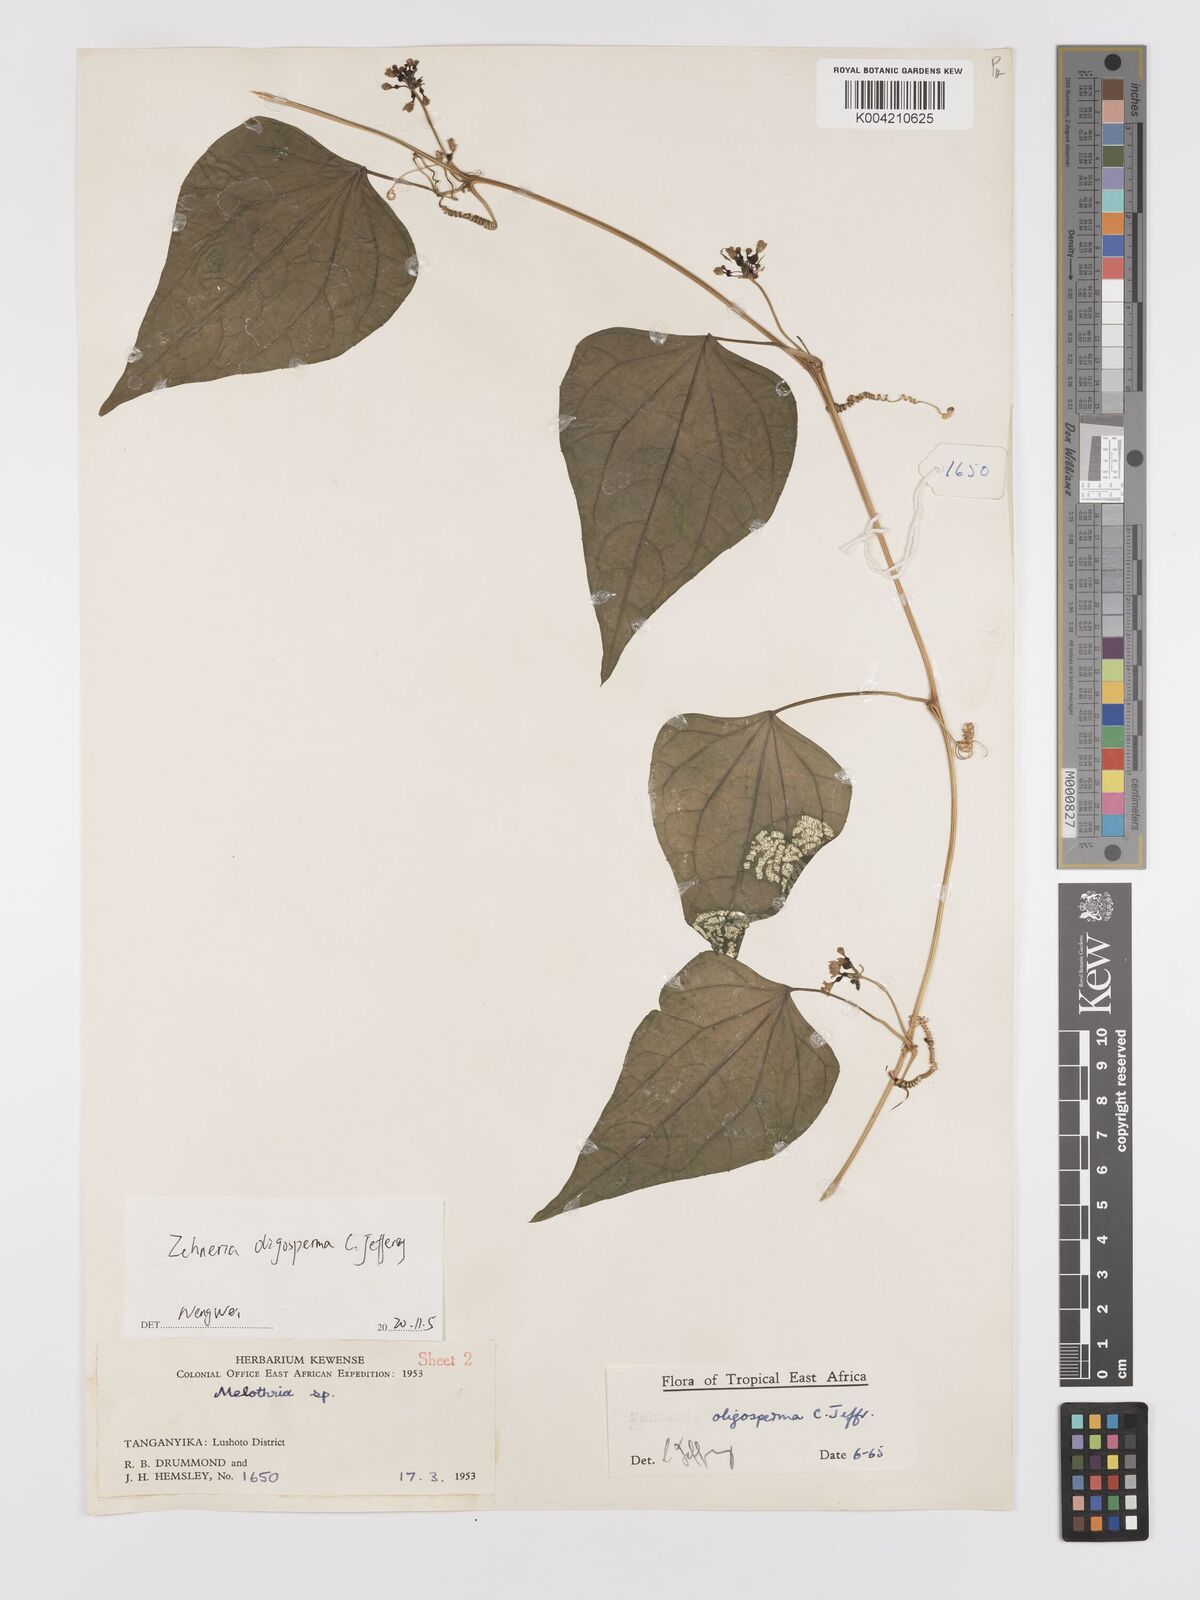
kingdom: Plantae
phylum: Tracheophyta
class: Magnoliopsida
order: Cucurbitales
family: Cucurbitaceae
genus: Zehneria
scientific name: Zehneria oligosperma
